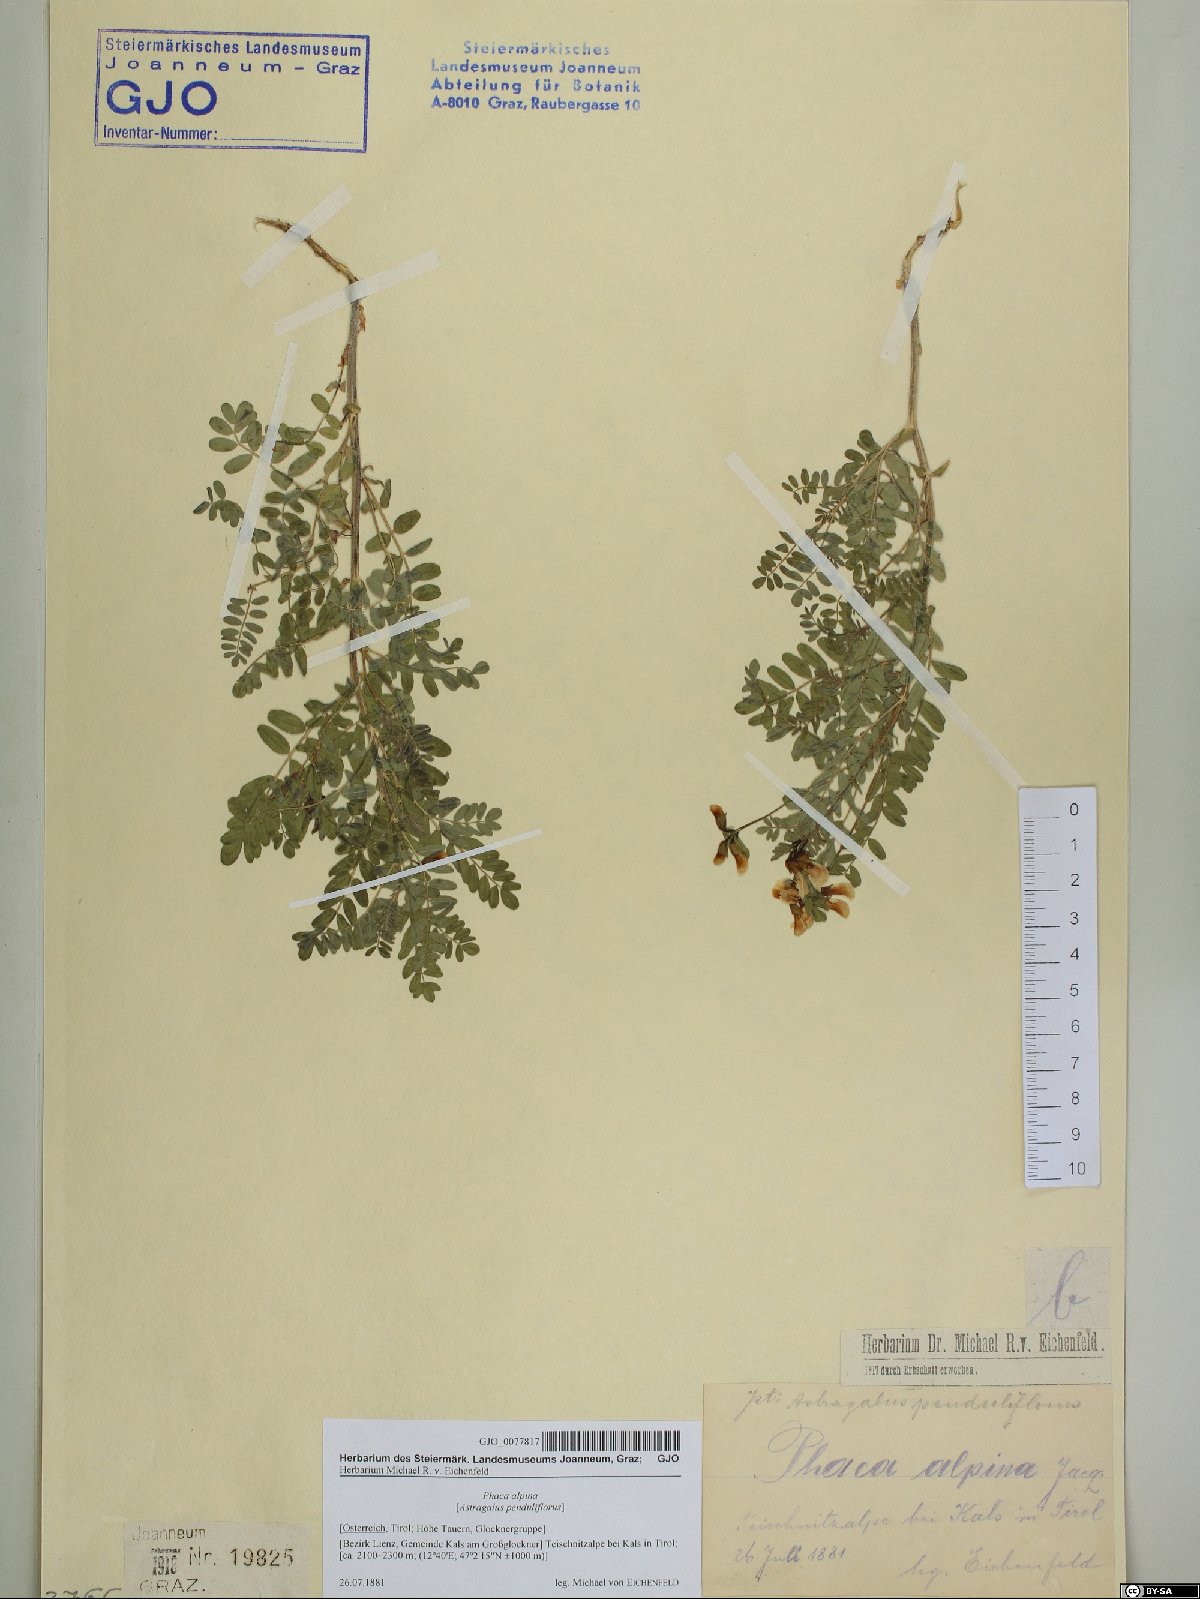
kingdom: Plantae
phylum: Tracheophyta
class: Magnoliopsida
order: Fabales
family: Fabaceae
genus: Astragalus
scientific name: Astragalus penduliflorus
